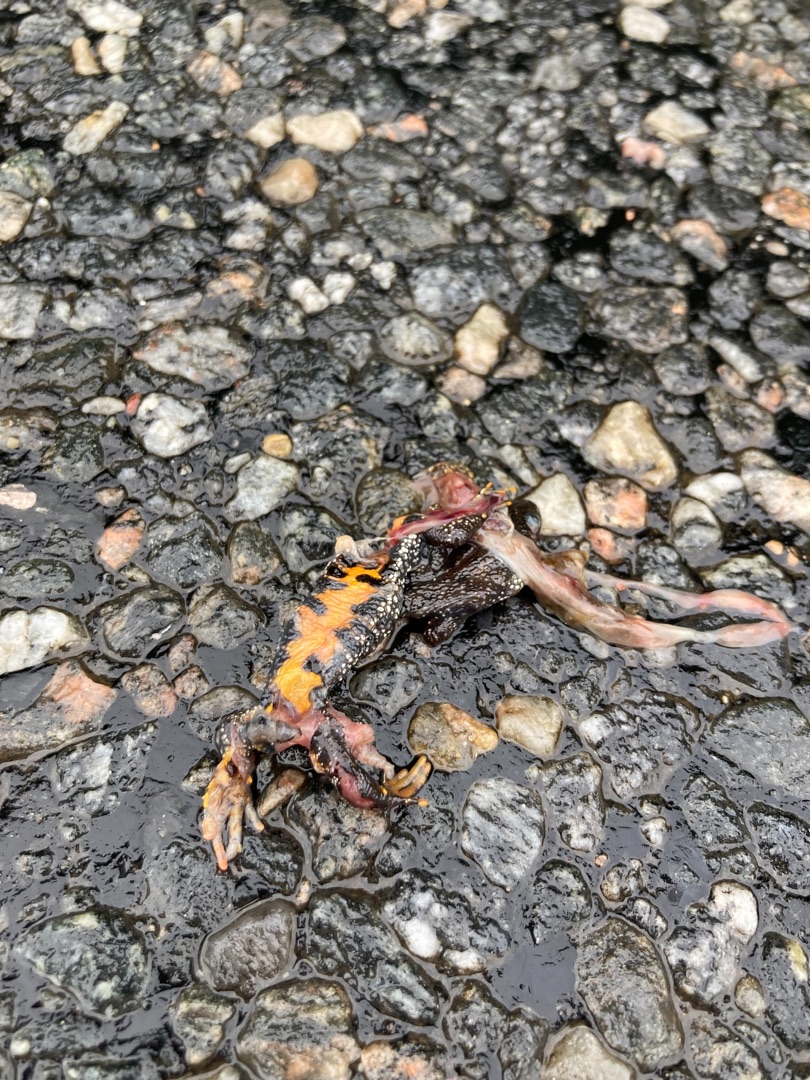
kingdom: Animalia
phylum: Chordata
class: Amphibia
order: Caudata
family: Salamandridae
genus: Triturus
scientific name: Triturus cristatus
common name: Stor vandsalamander
